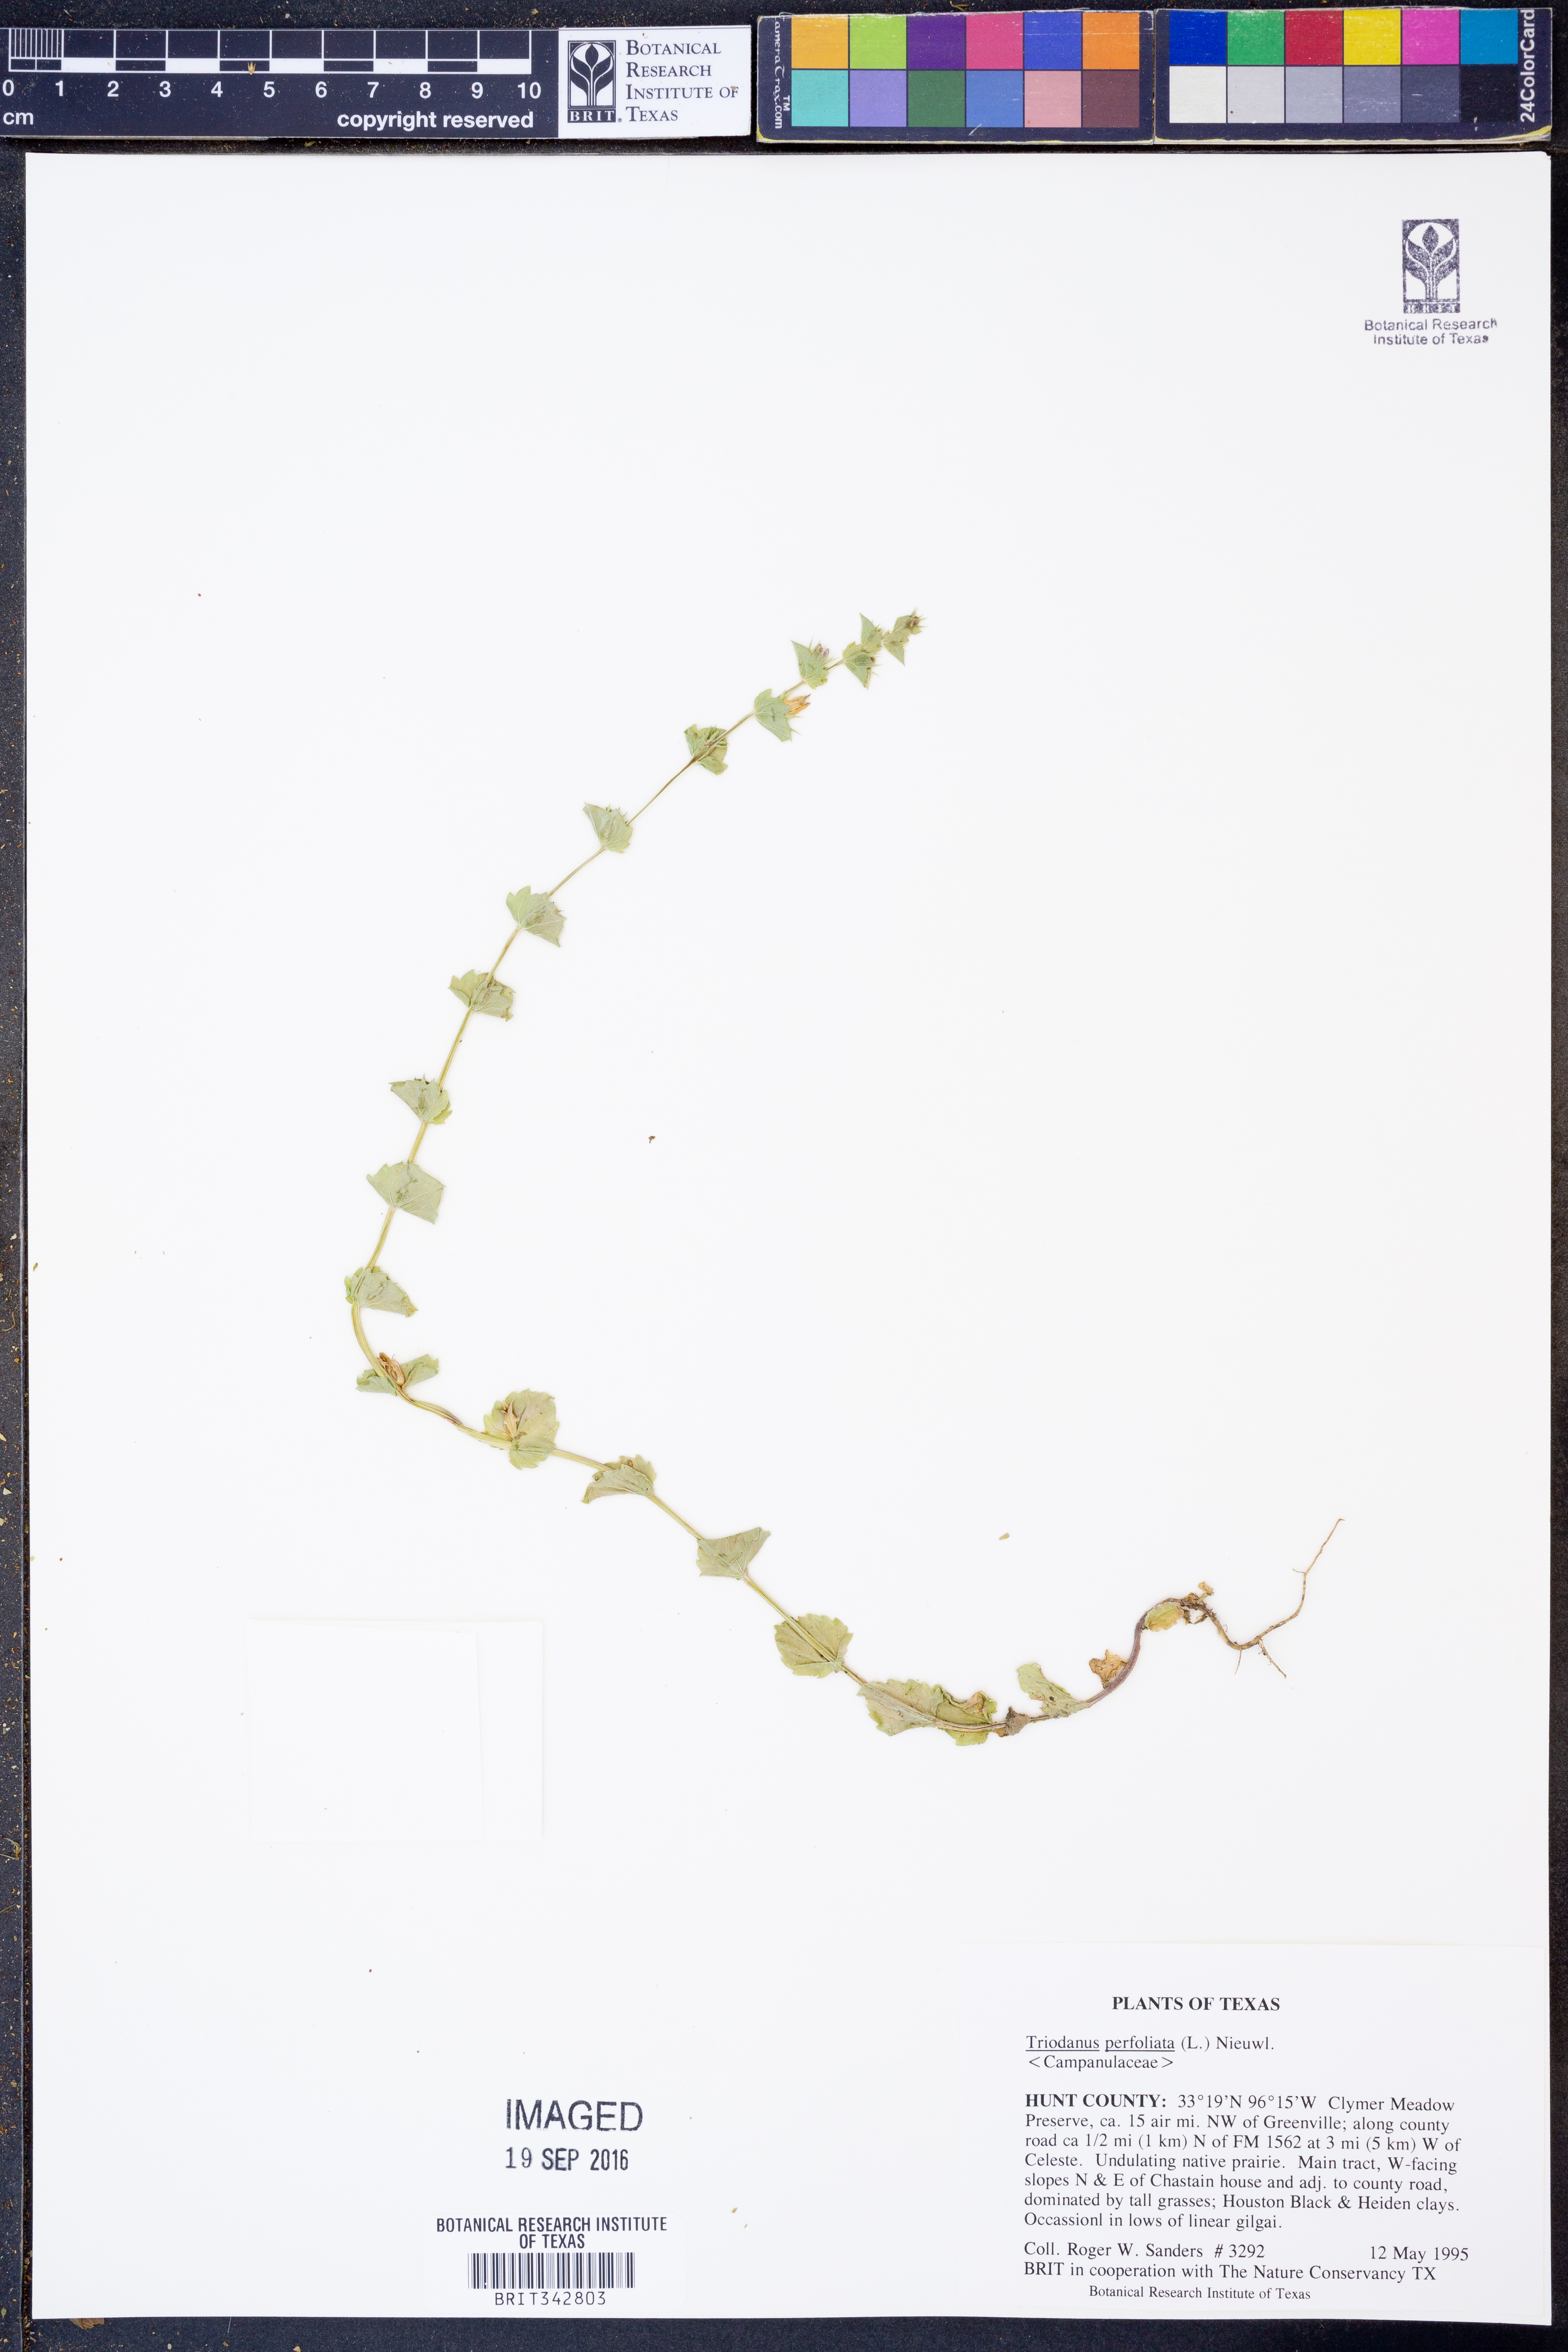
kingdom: Plantae
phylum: Tracheophyta
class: Magnoliopsida
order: Asterales
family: Campanulaceae
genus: Triodanis
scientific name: Triodanis perfoliata
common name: Clasping venus' looking-glass
